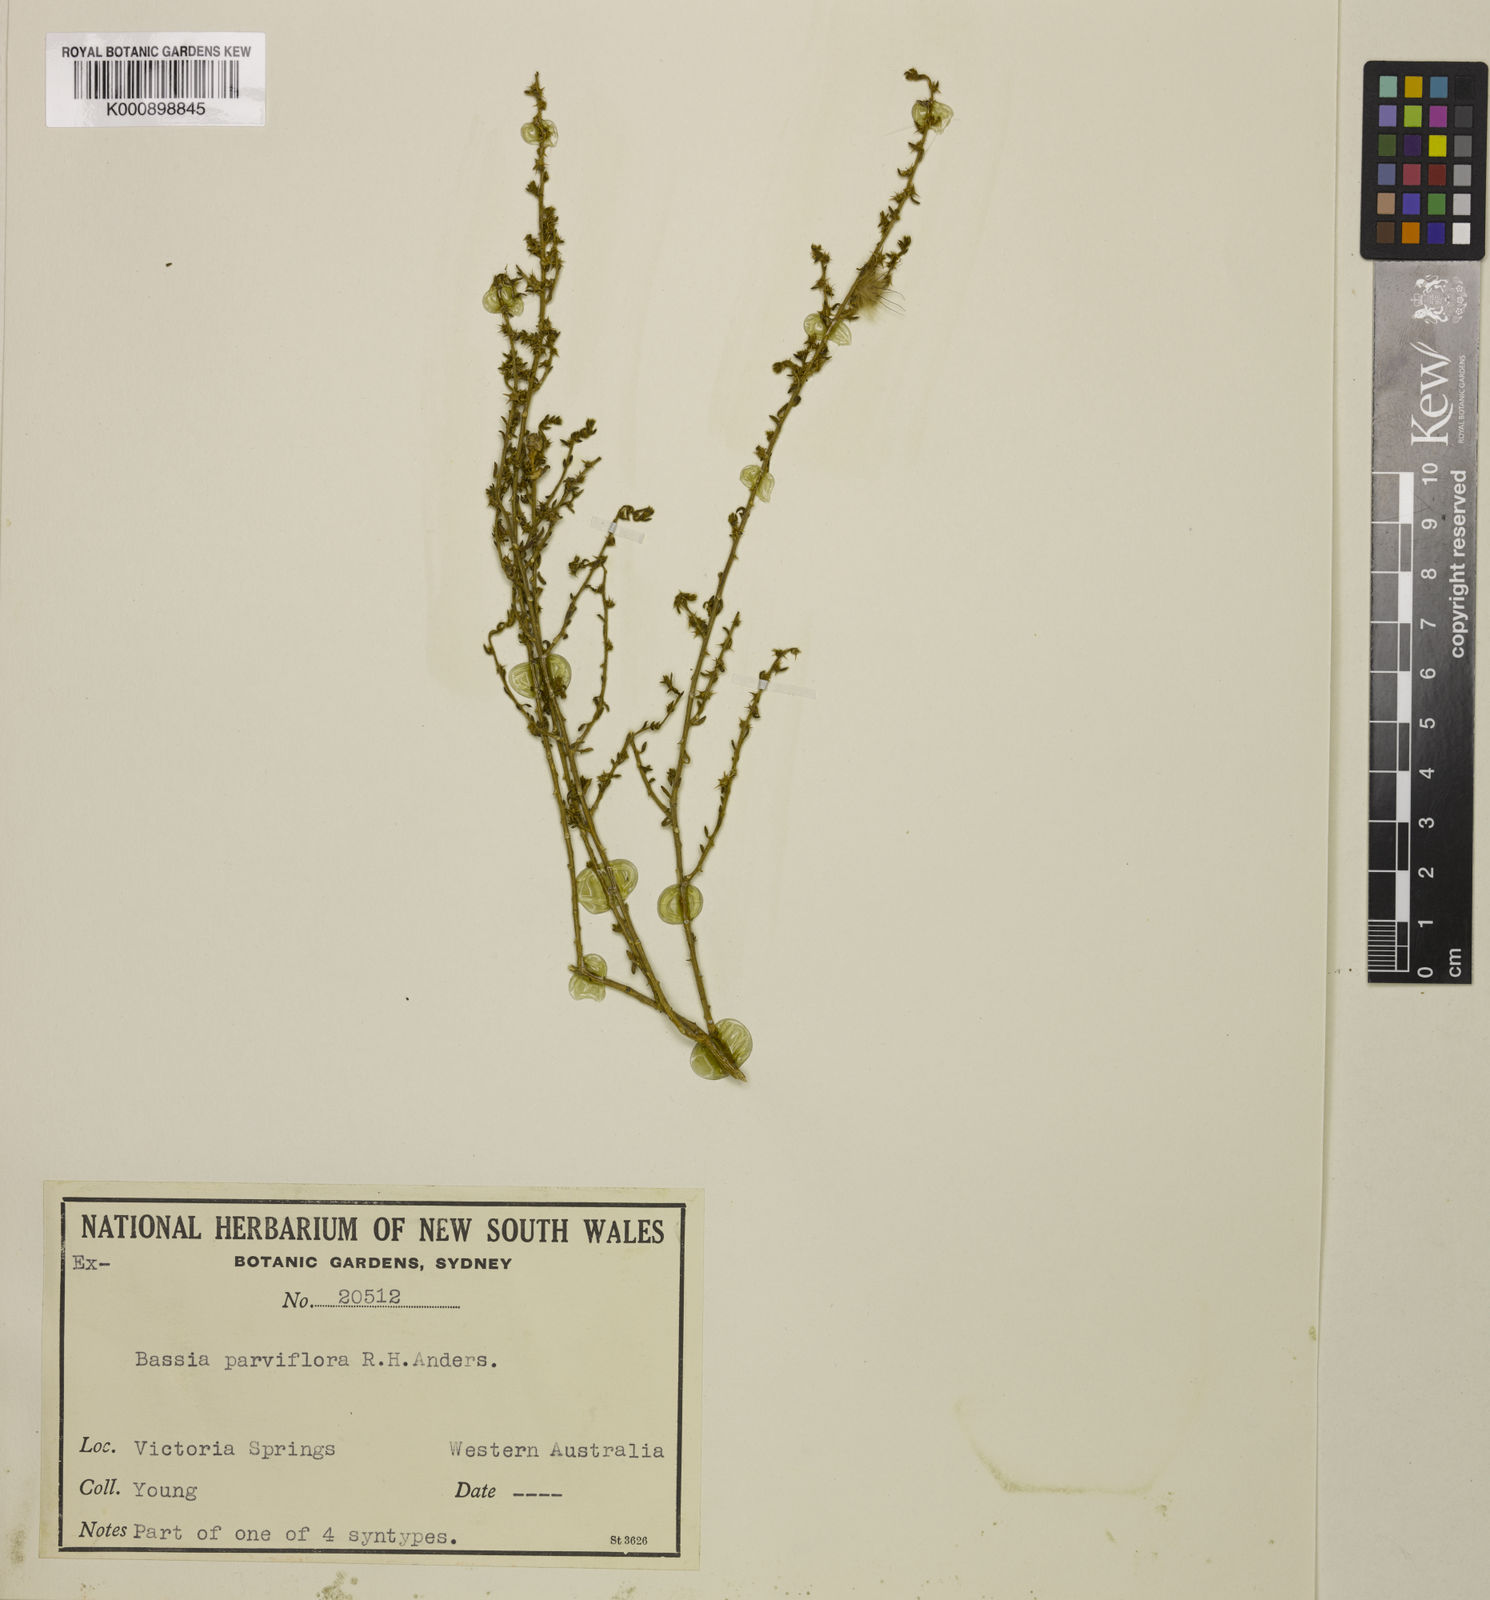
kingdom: Plantae
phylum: Tracheophyta
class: Magnoliopsida
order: Caryophyllales
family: Amaranthaceae
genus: Sclerolaena
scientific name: Sclerolaena parviflora
